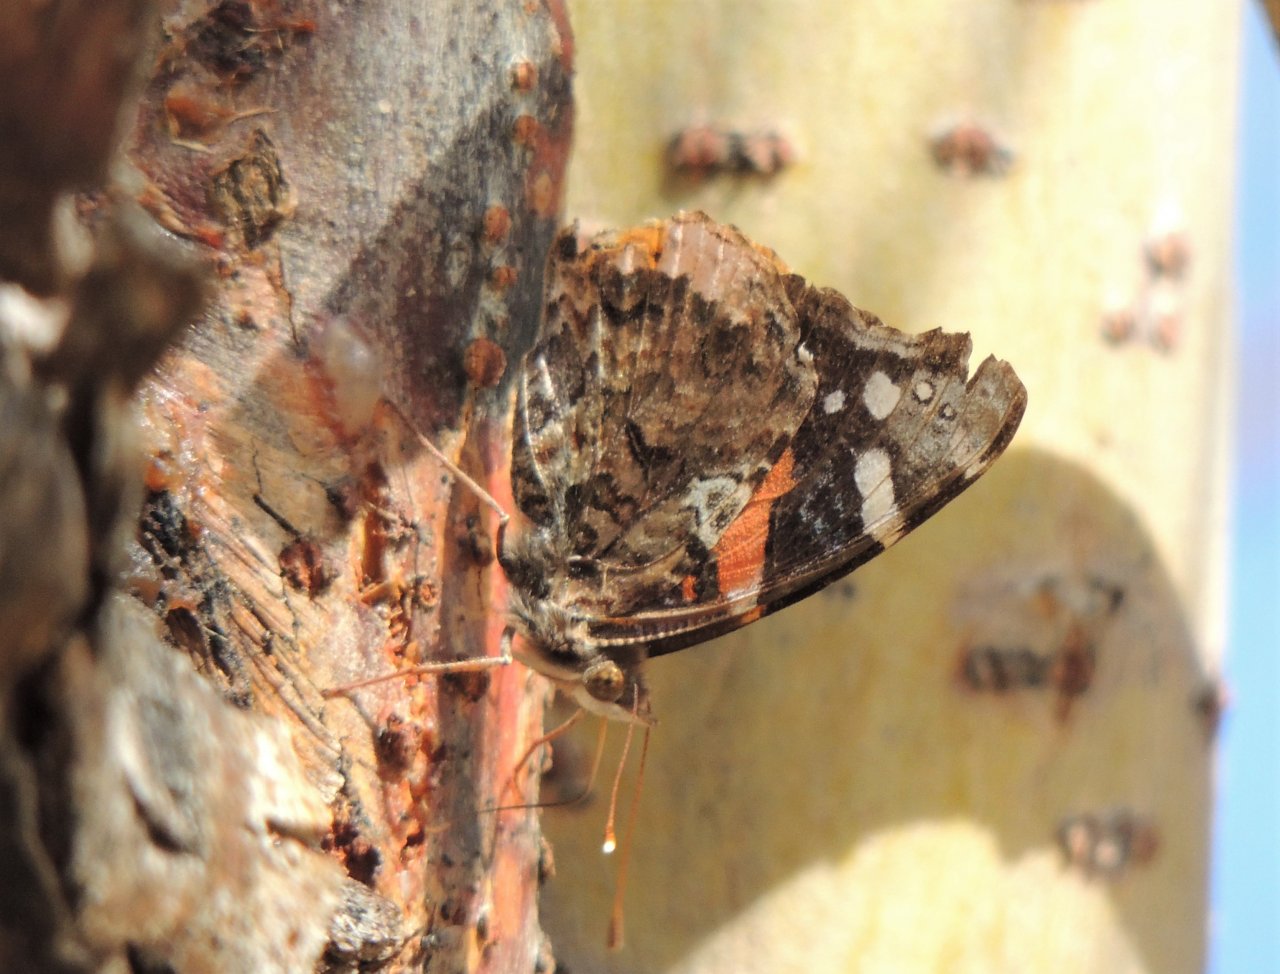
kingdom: Animalia
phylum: Arthropoda
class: Insecta
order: Lepidoptera
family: Nymphalidae
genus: Vanessa
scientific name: Vanessa atalanta
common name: Red Admiral
